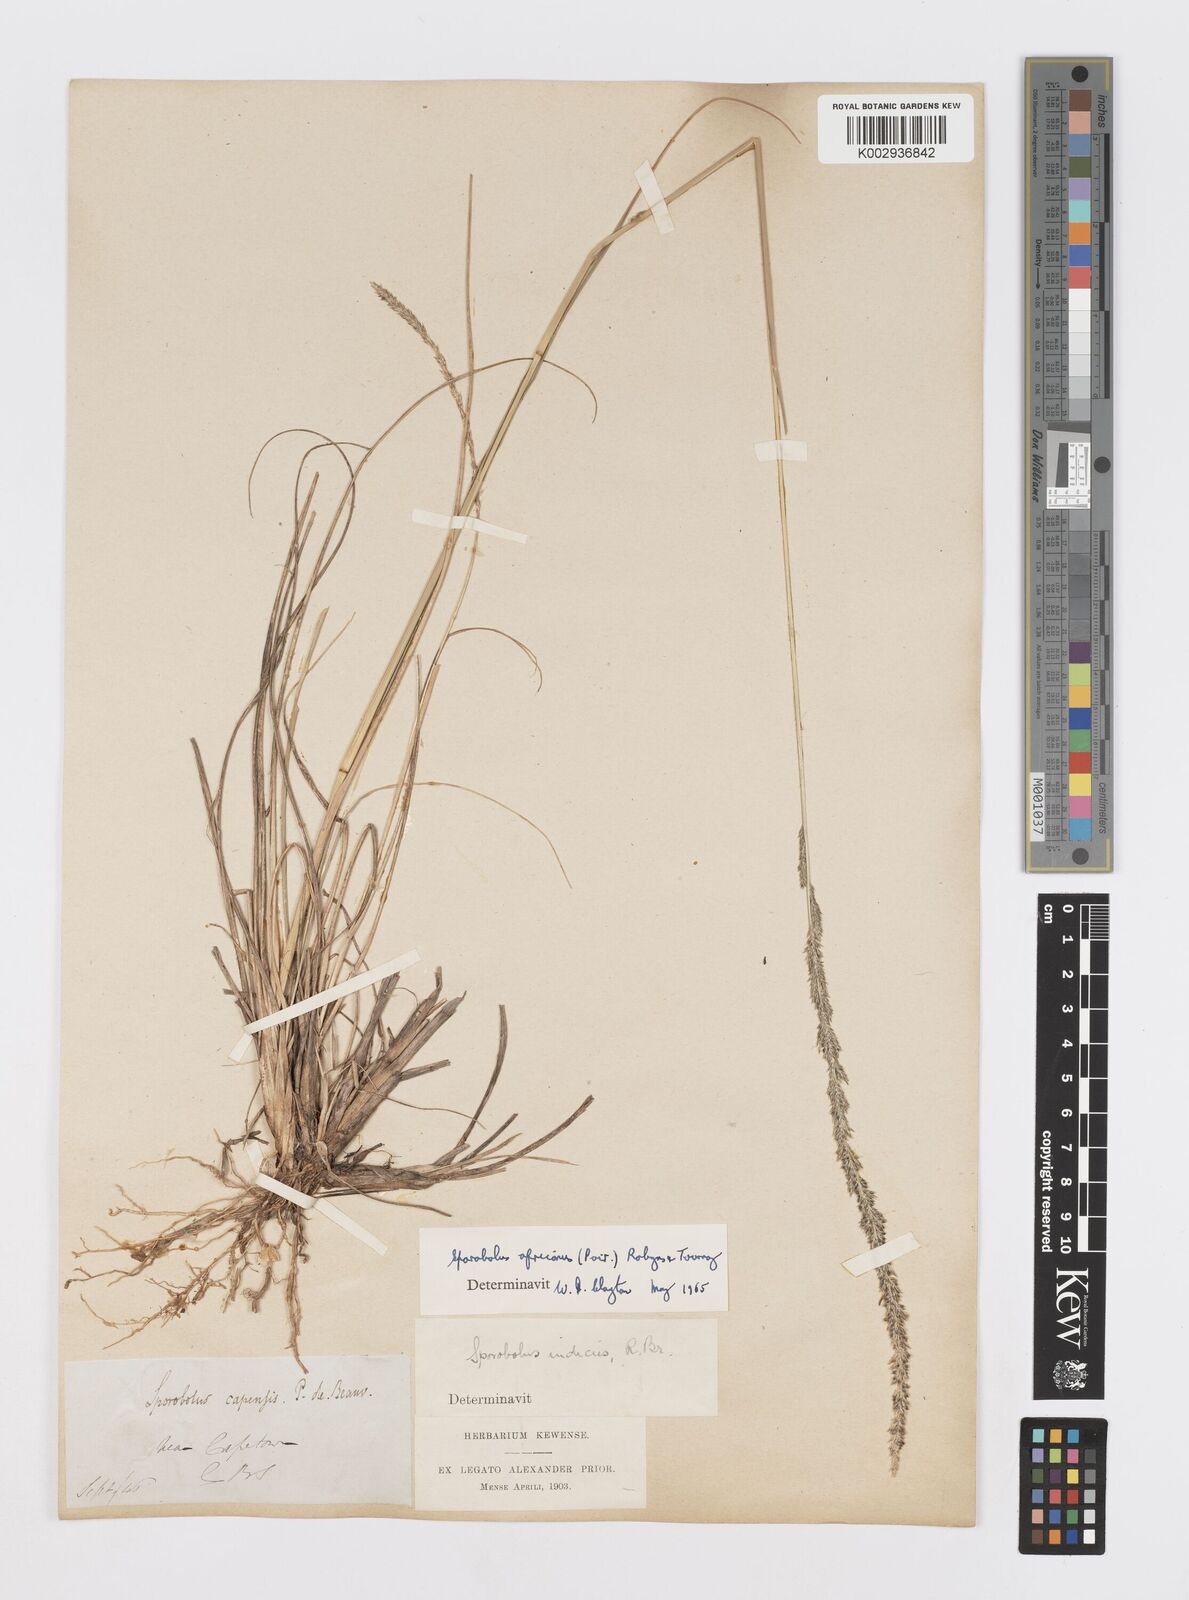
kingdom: Plantae
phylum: Tracheophyta
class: Liliopsida
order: Poales
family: Poaceae
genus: Sporobolus
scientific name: Sporobolus africanus
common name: African dropseed
